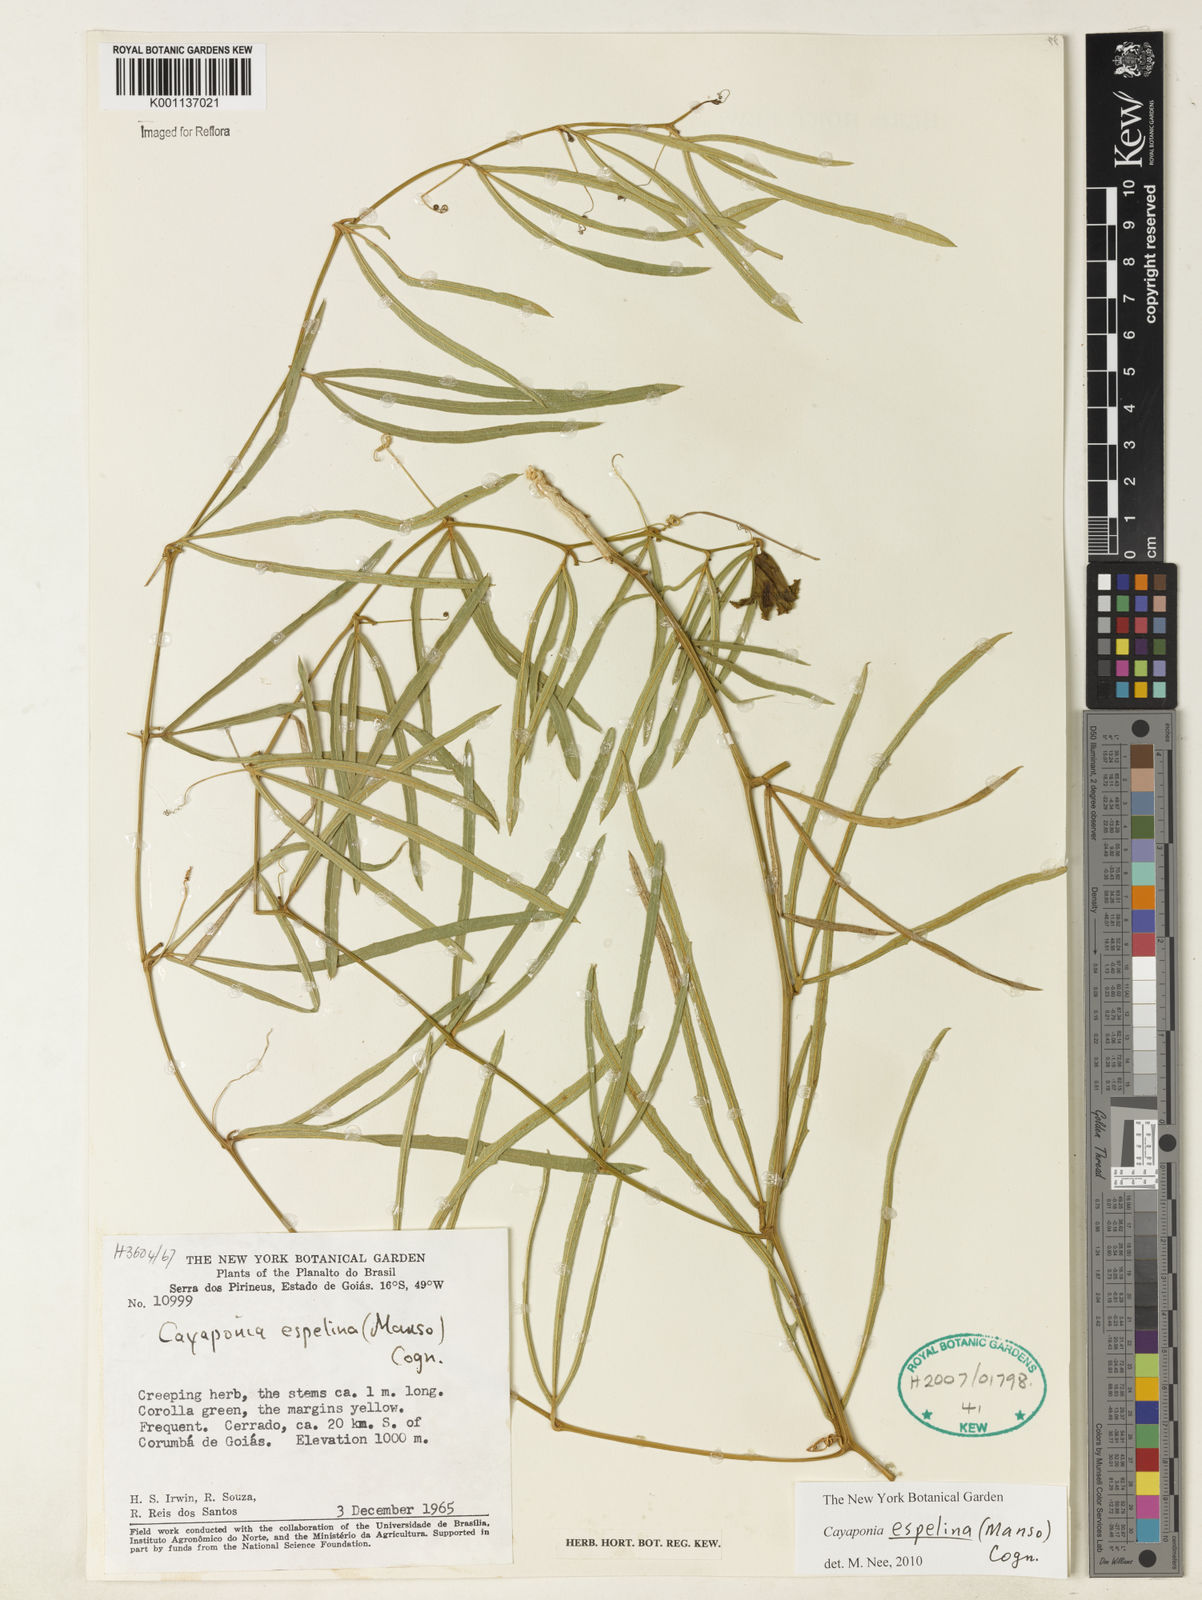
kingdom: Plantae
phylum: Tracheophyta
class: Magnoliopsida
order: Cucurbitales
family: Cucurbitaceae
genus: Cayaponia
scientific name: Cayaponia espelina
